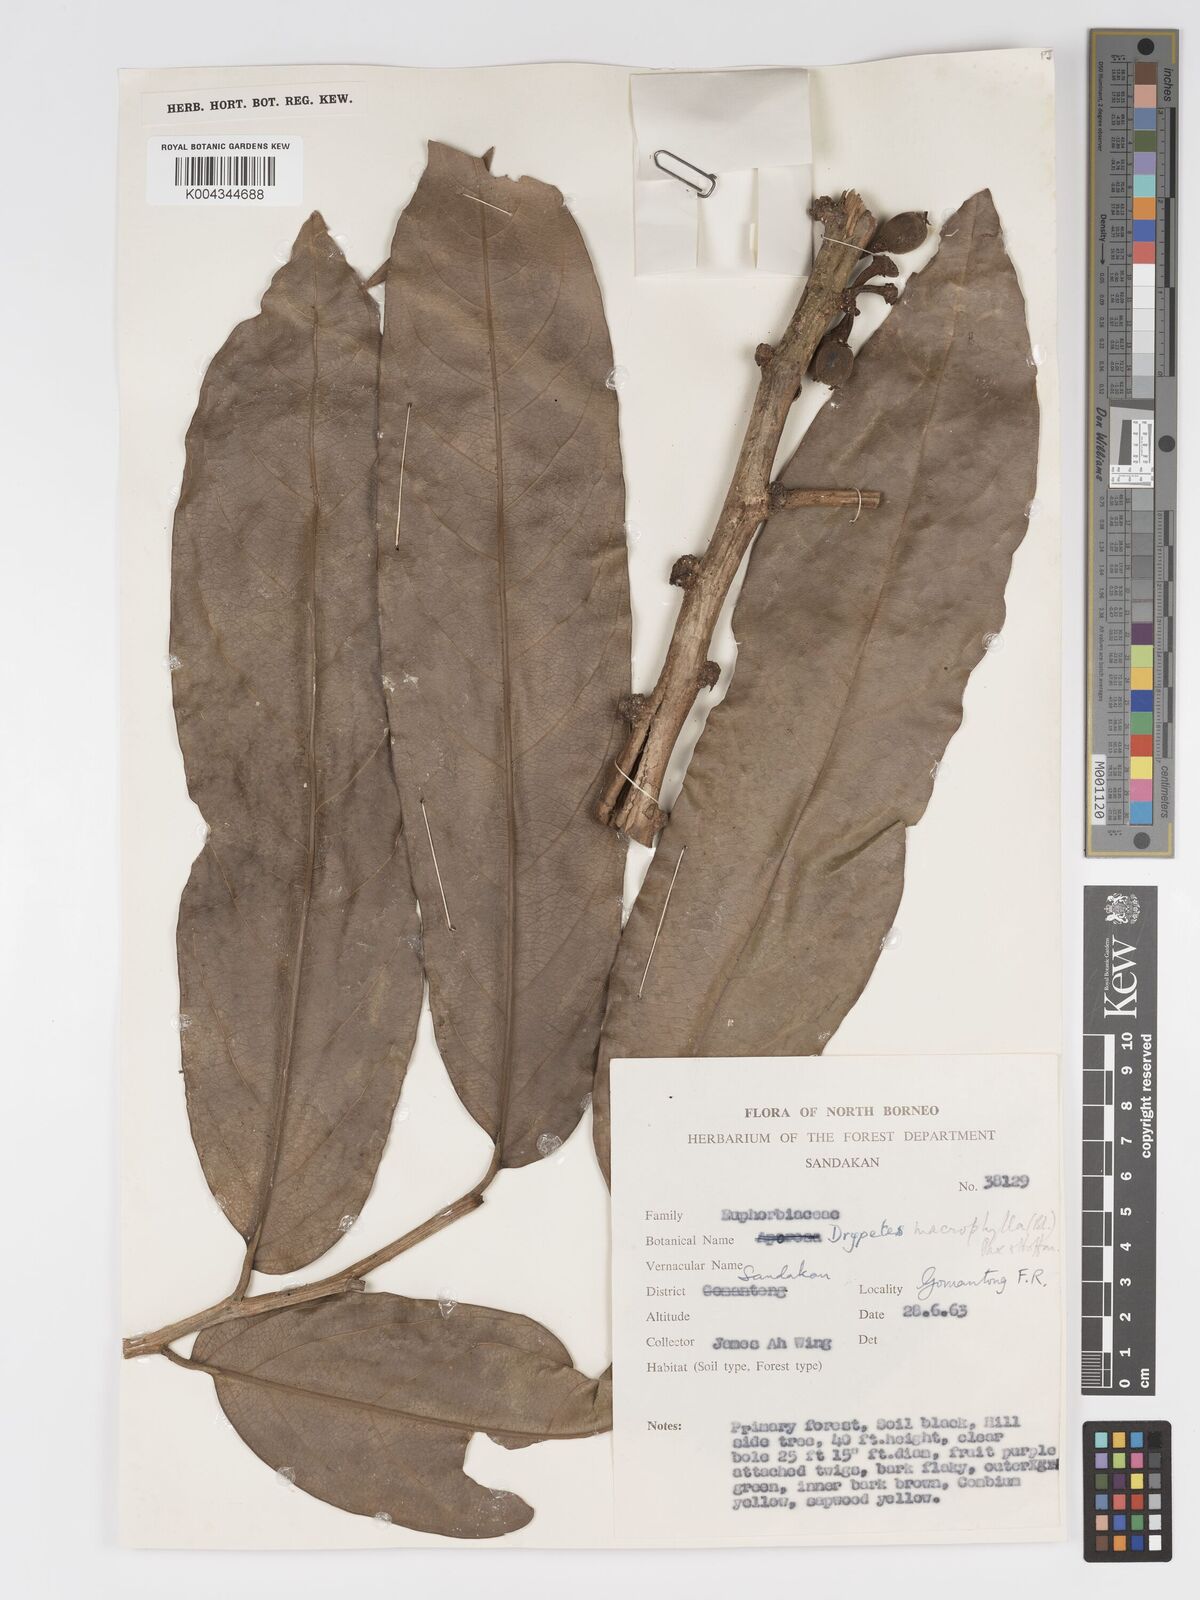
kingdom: Plantae
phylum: Tracheophyta
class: Magnoliopsida
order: Malpighiales
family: Putranjivaceae
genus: Drypetes
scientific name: Drypetes longifolia
